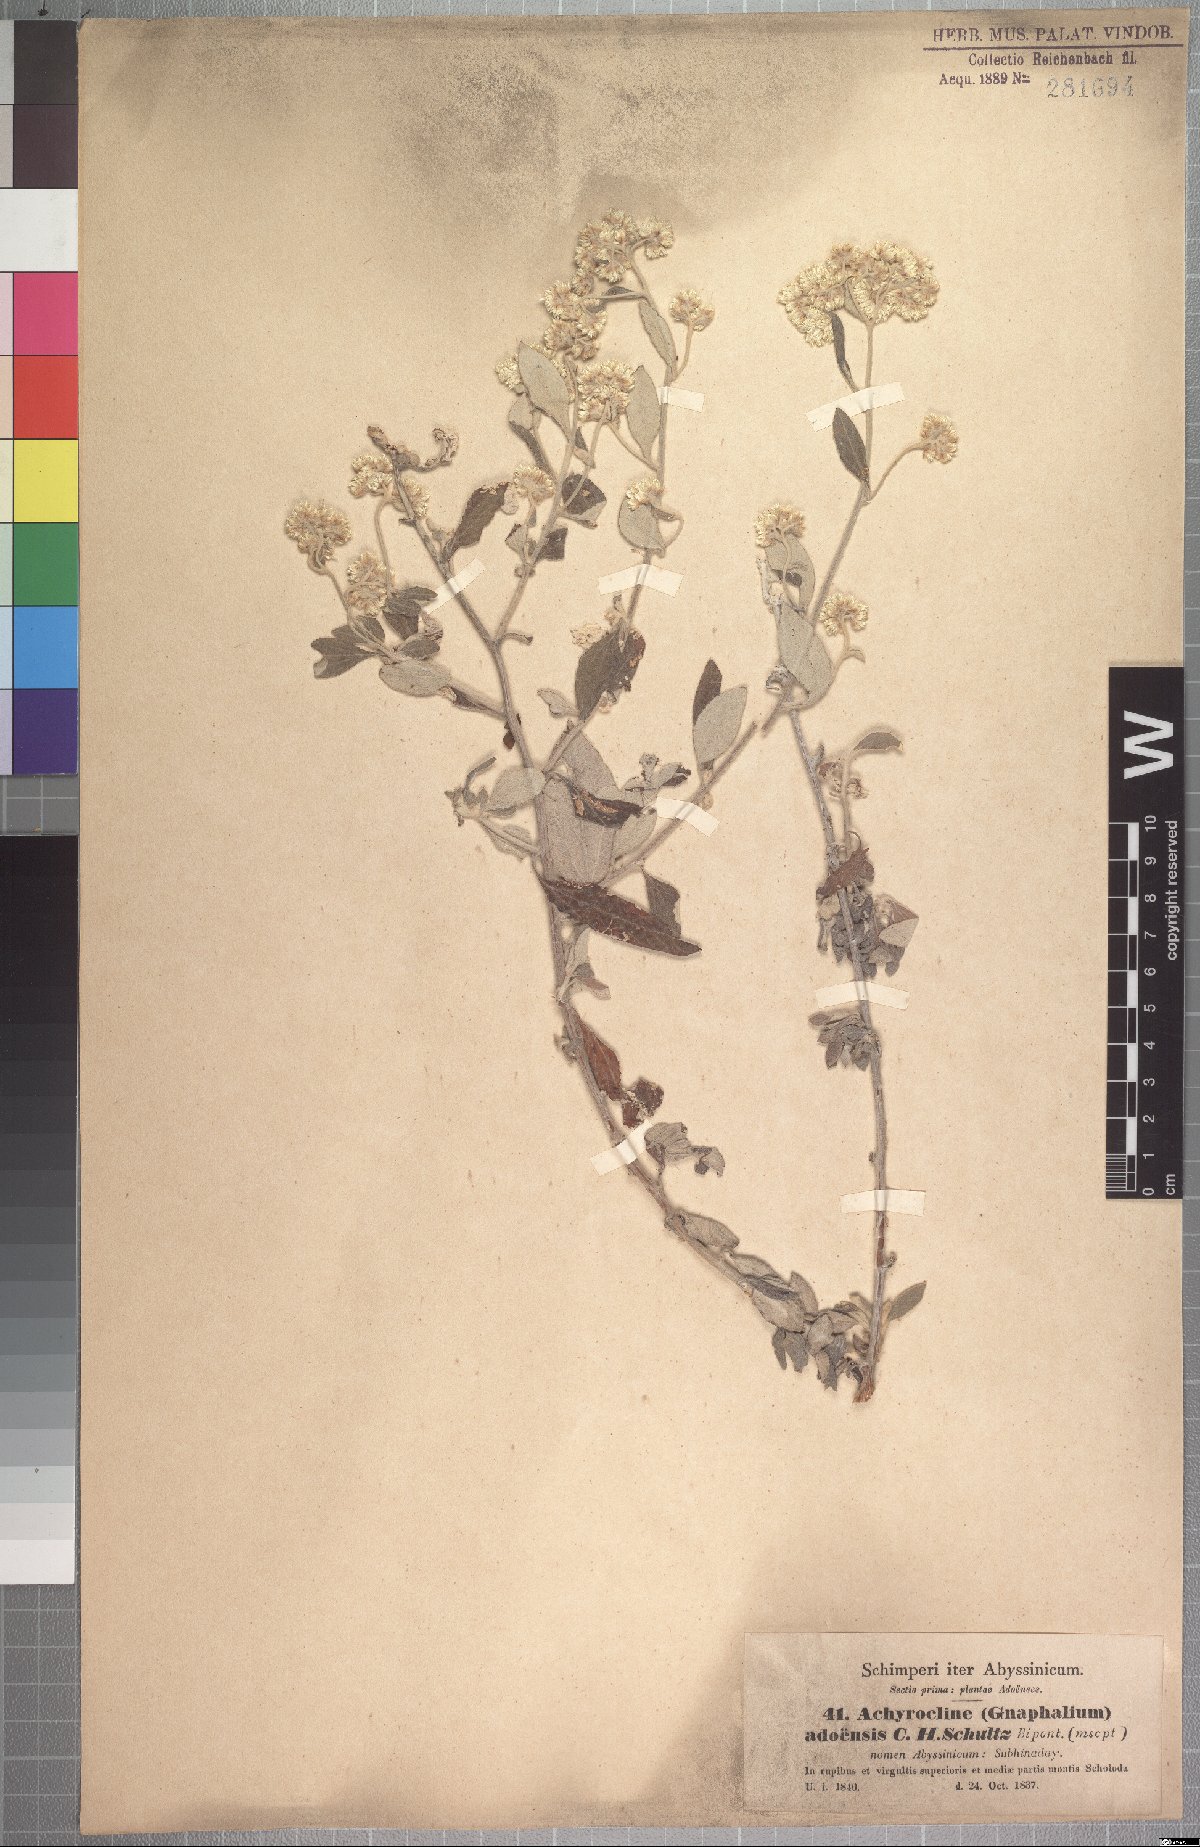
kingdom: Plantae
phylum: Tracheophyta
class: Magnoliopsida
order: Asterales
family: Asteraceae
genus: Helichrysum
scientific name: Helichrysum schimperi
